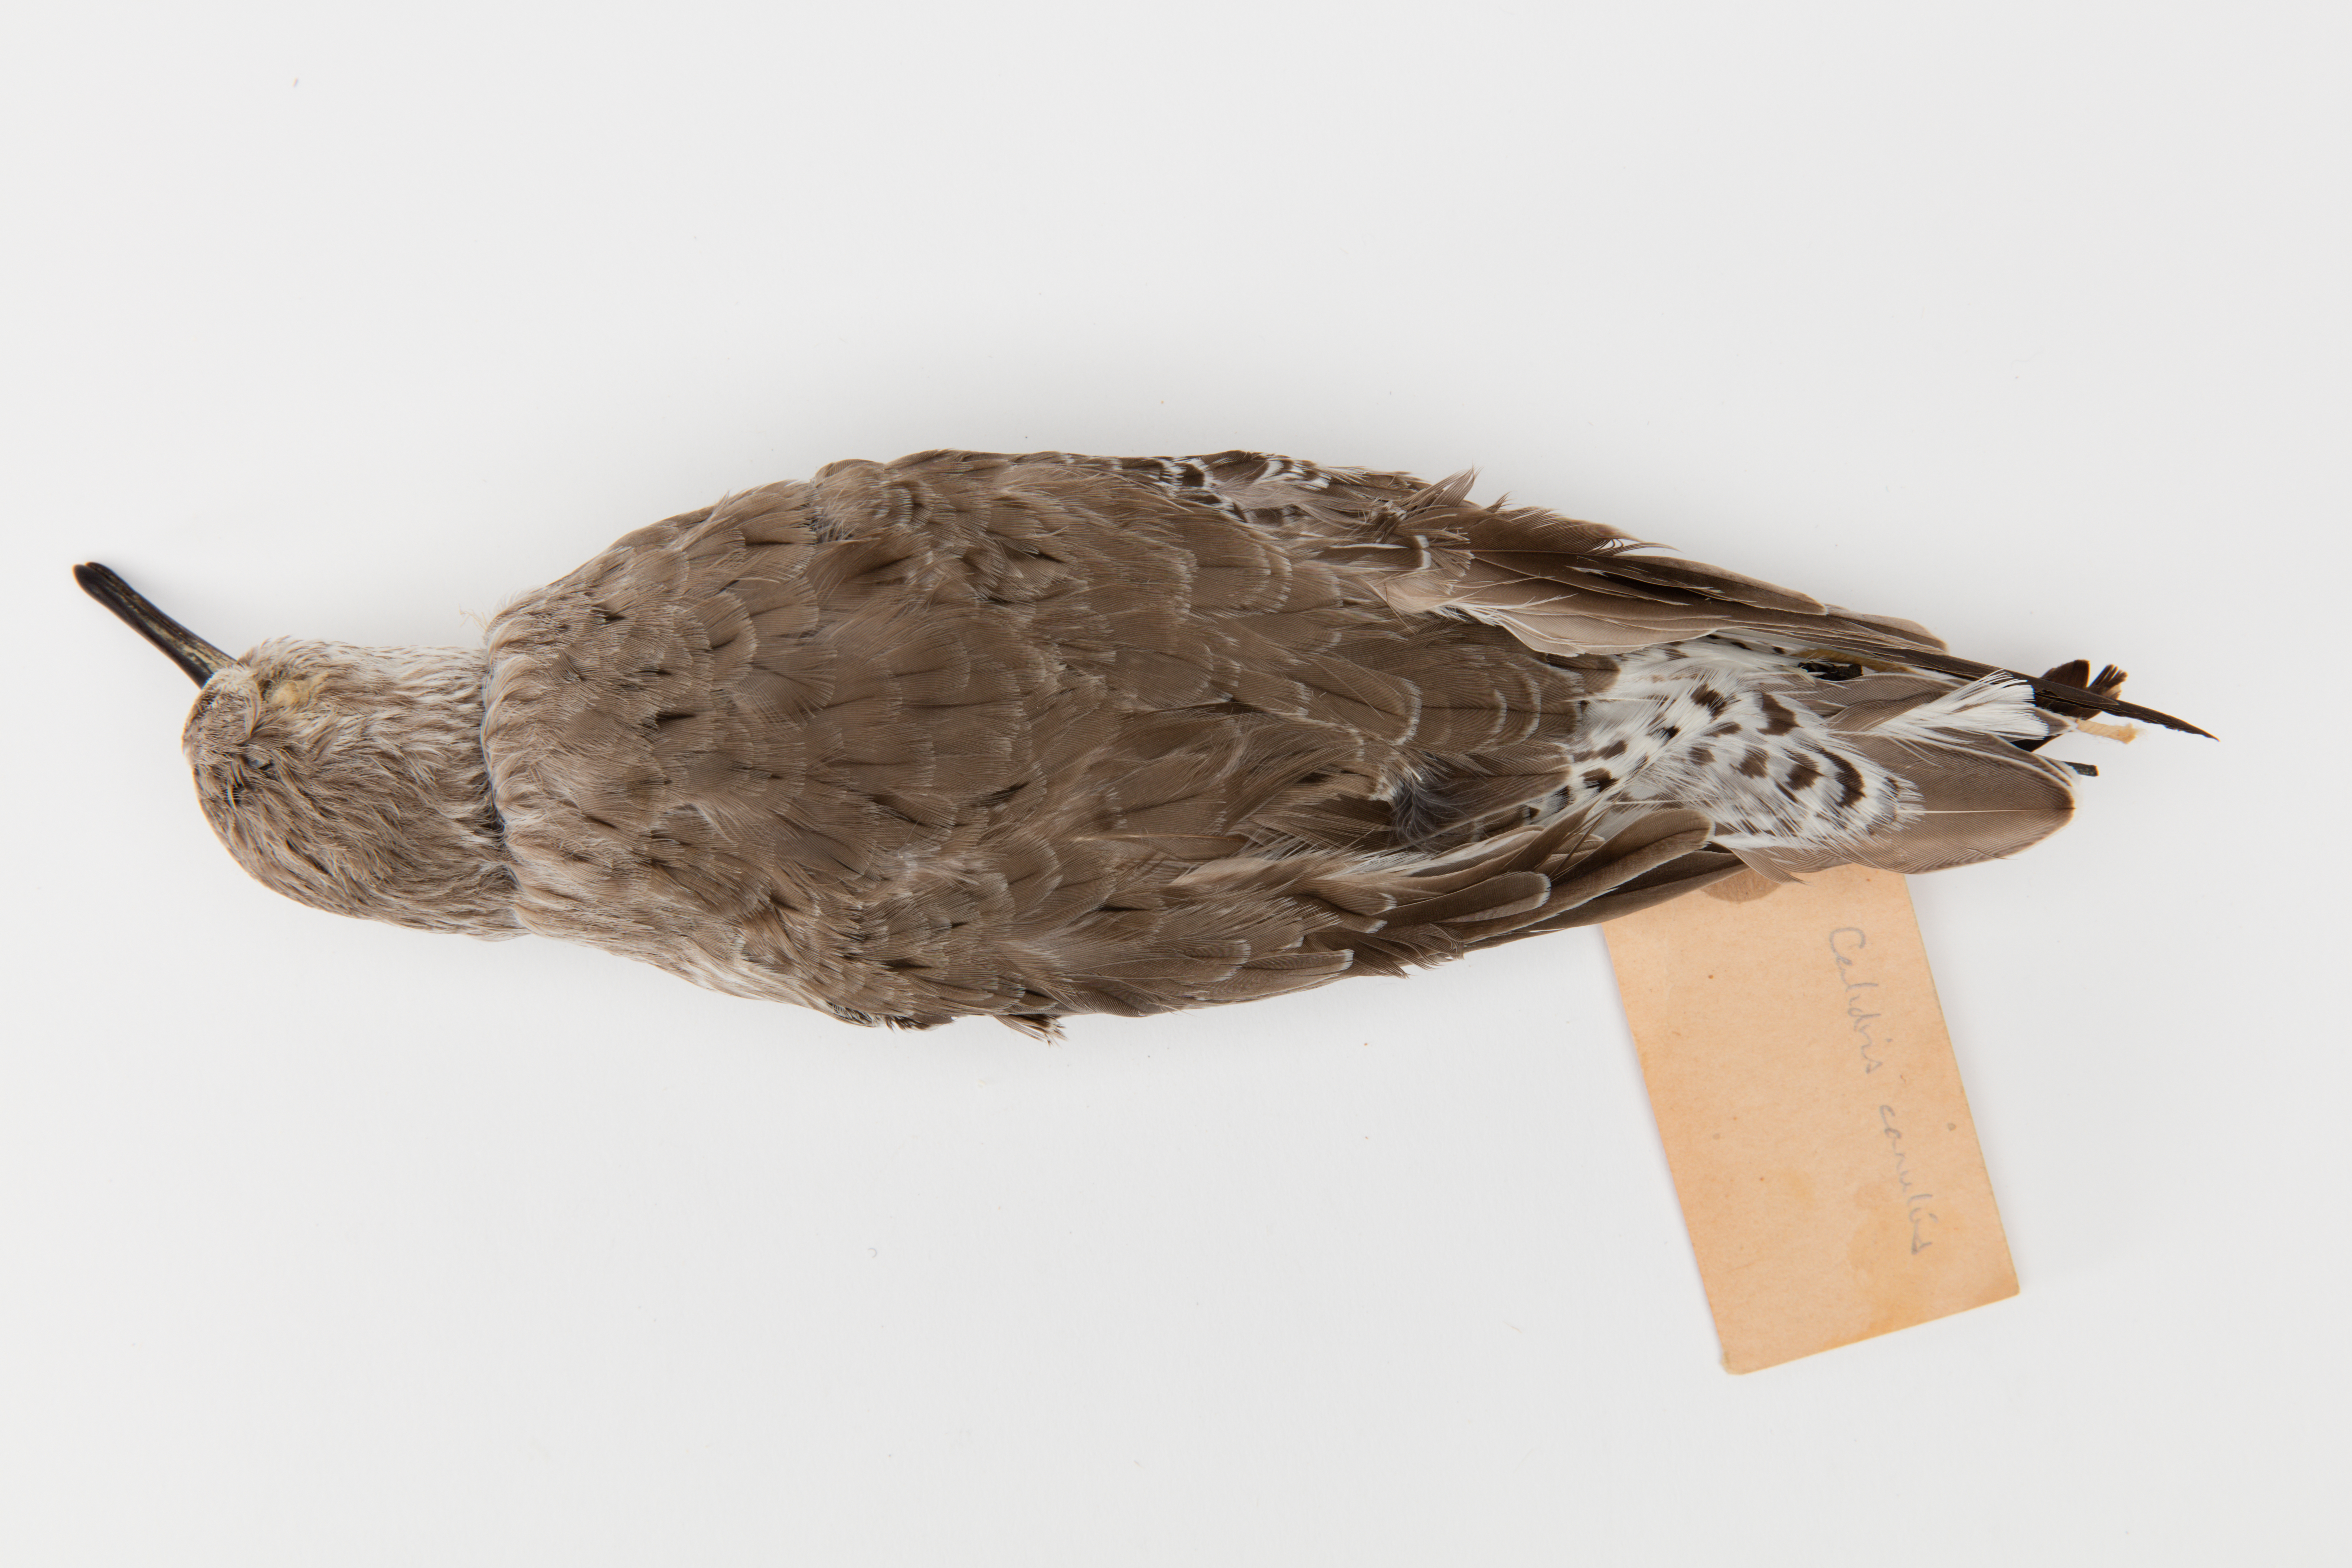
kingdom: Animalia
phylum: Chordata
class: Aves
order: Charadriiformes
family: Scolopacidae
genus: Calidris
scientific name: Calidris canutus
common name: Red knot
